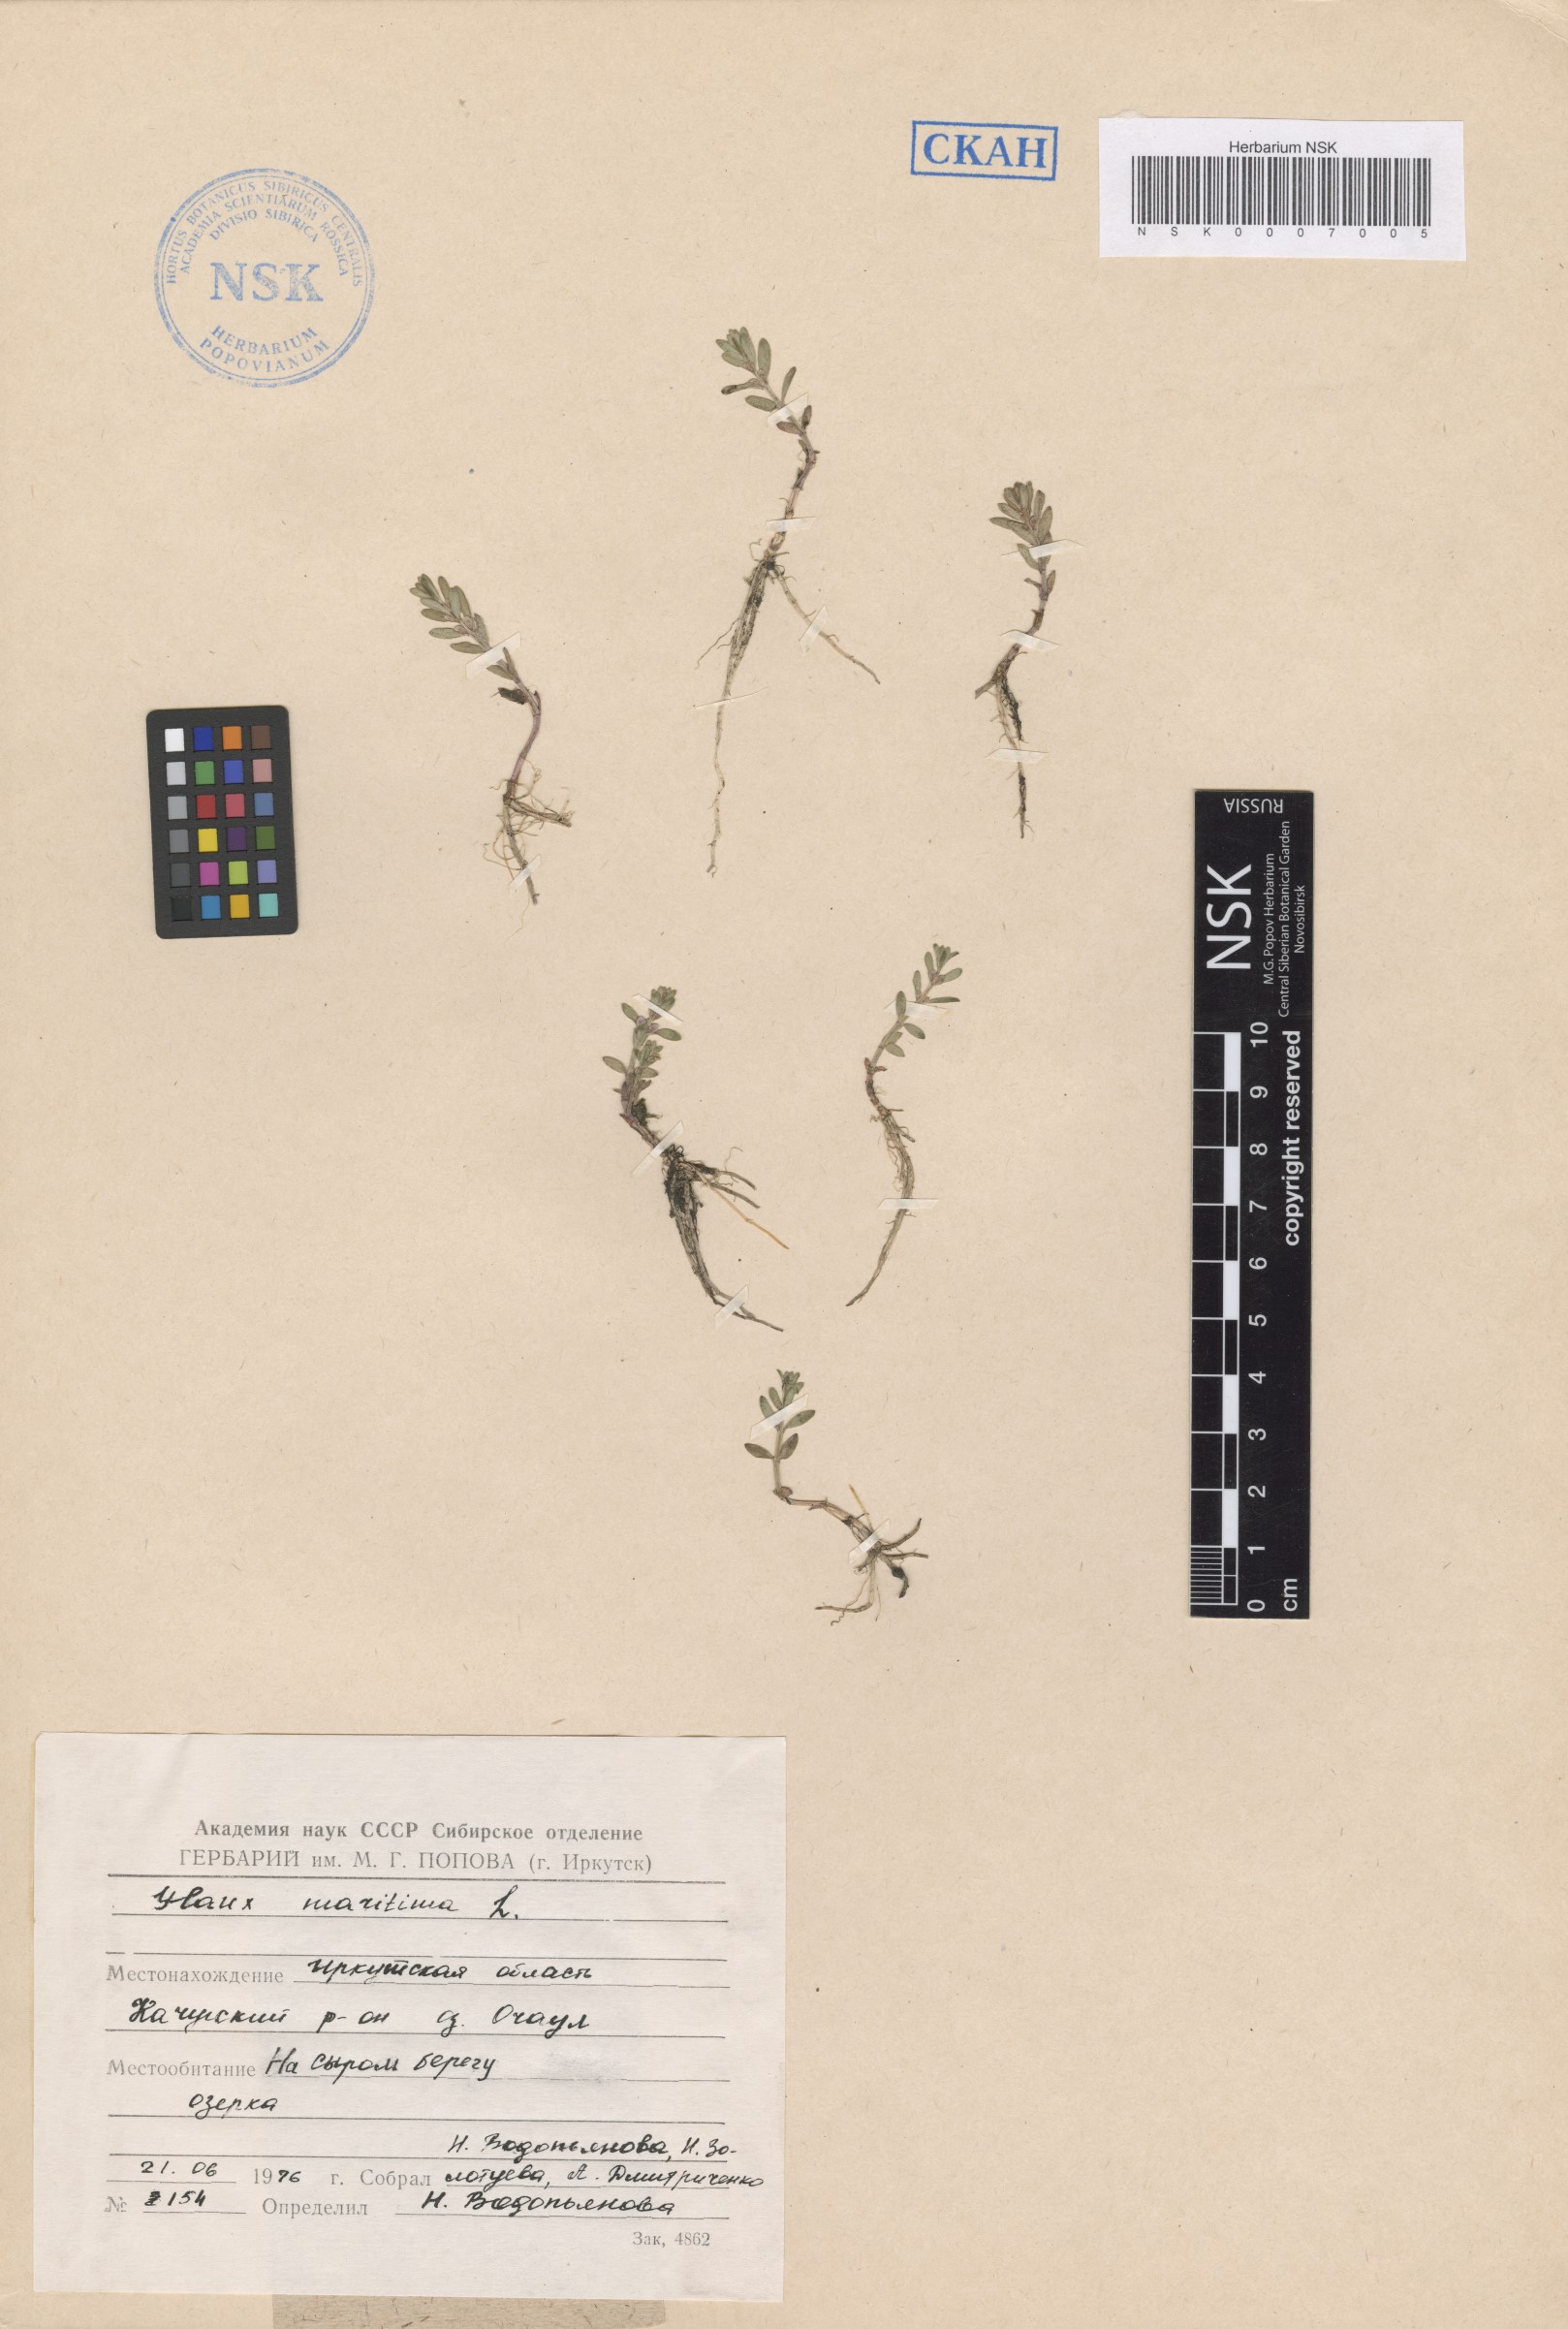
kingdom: Plantae
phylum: Tracheophyta
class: Magnoliopsida
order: Ericales
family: Primulaceae
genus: Lysimachia
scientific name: Lysimachia maritima
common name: Sea milkwort
